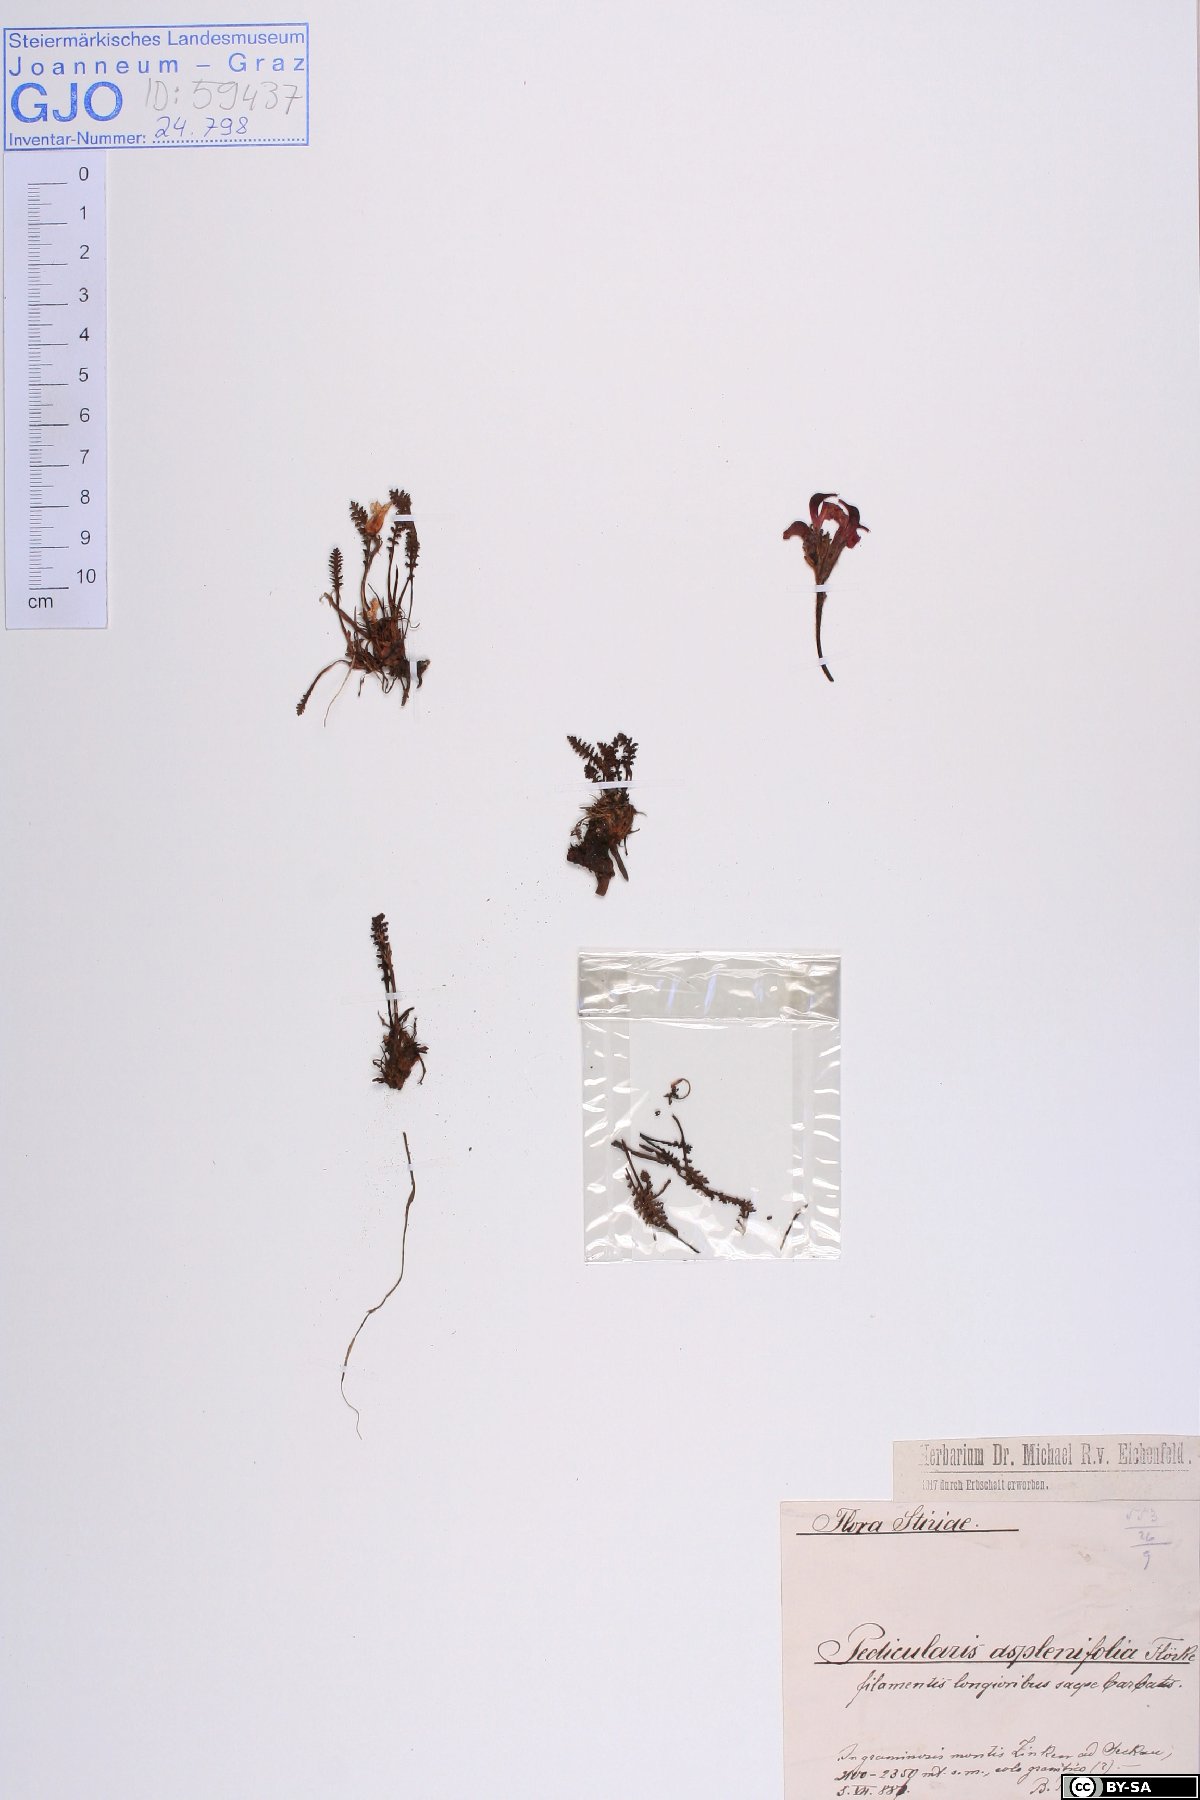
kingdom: Plantae
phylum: Tracheophyta
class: Magnoliopsida
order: Lamiales
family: Orobanchaceae
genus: Pedicularis
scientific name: Pedicularis asplenifolia
